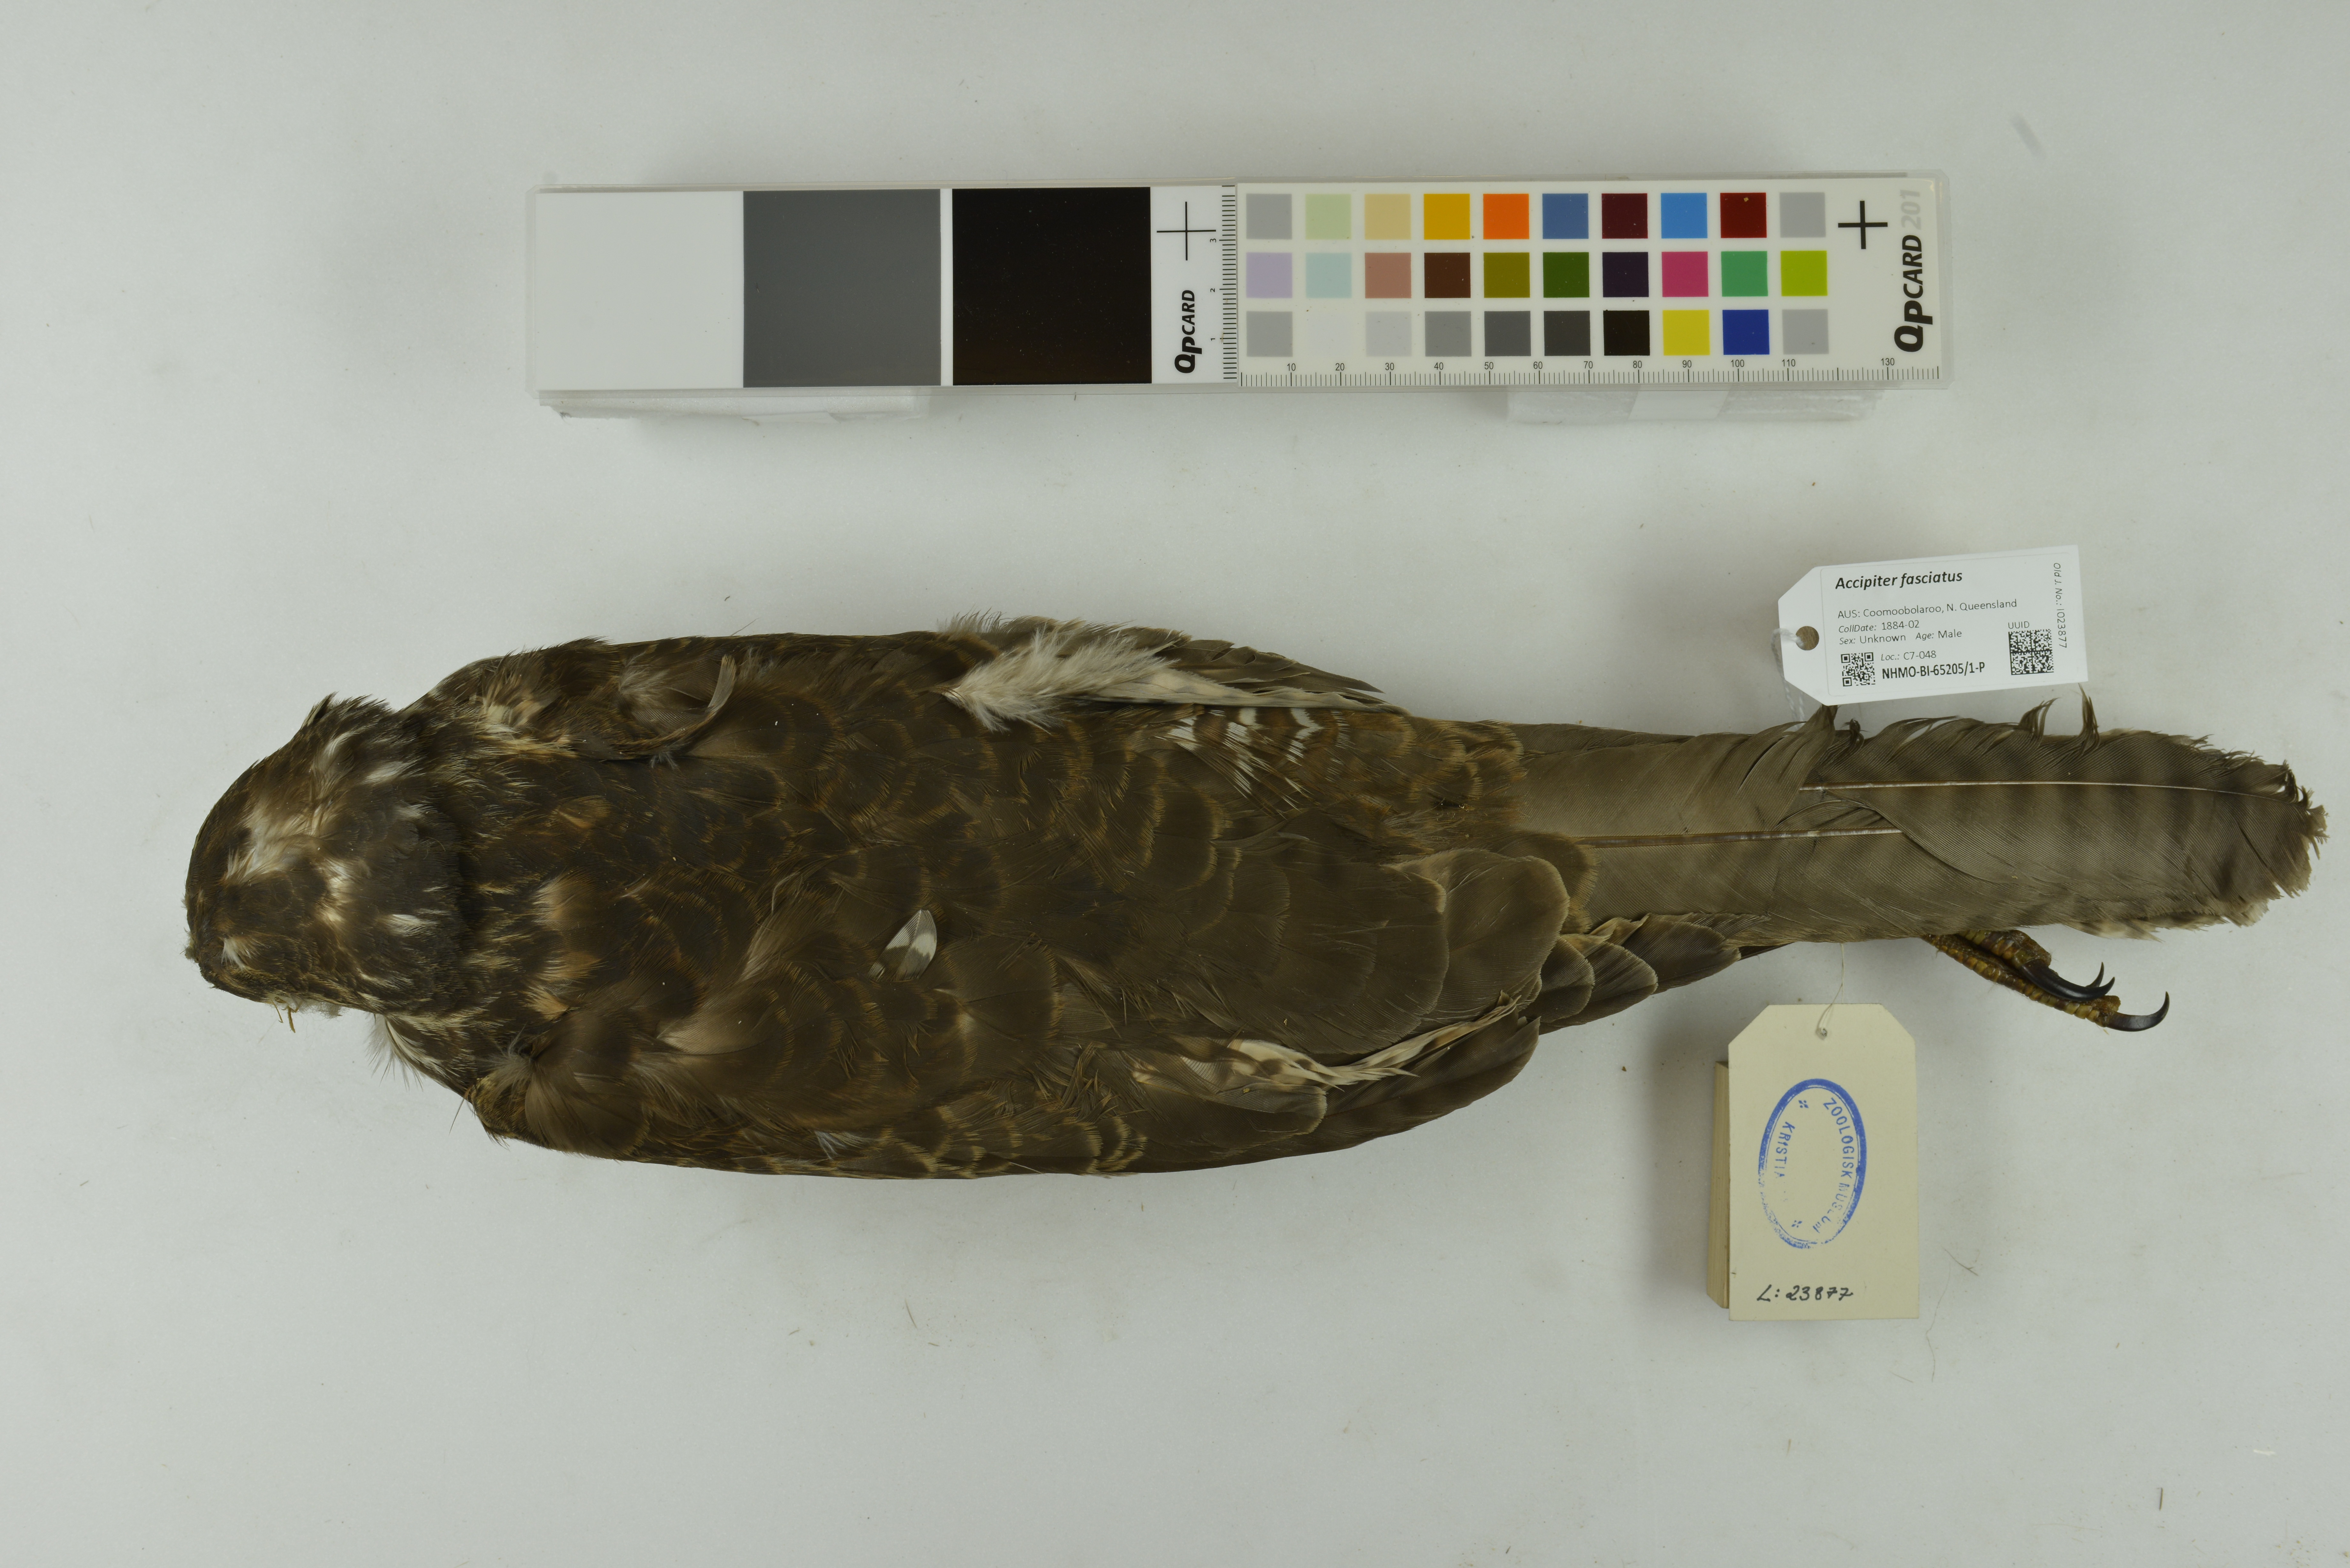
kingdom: Animalia
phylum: Chordata
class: Aves
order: Accipitriformes
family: Accipitridae
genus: Accipiter
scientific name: Accipiter fasciatus
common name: Brown goshawk
